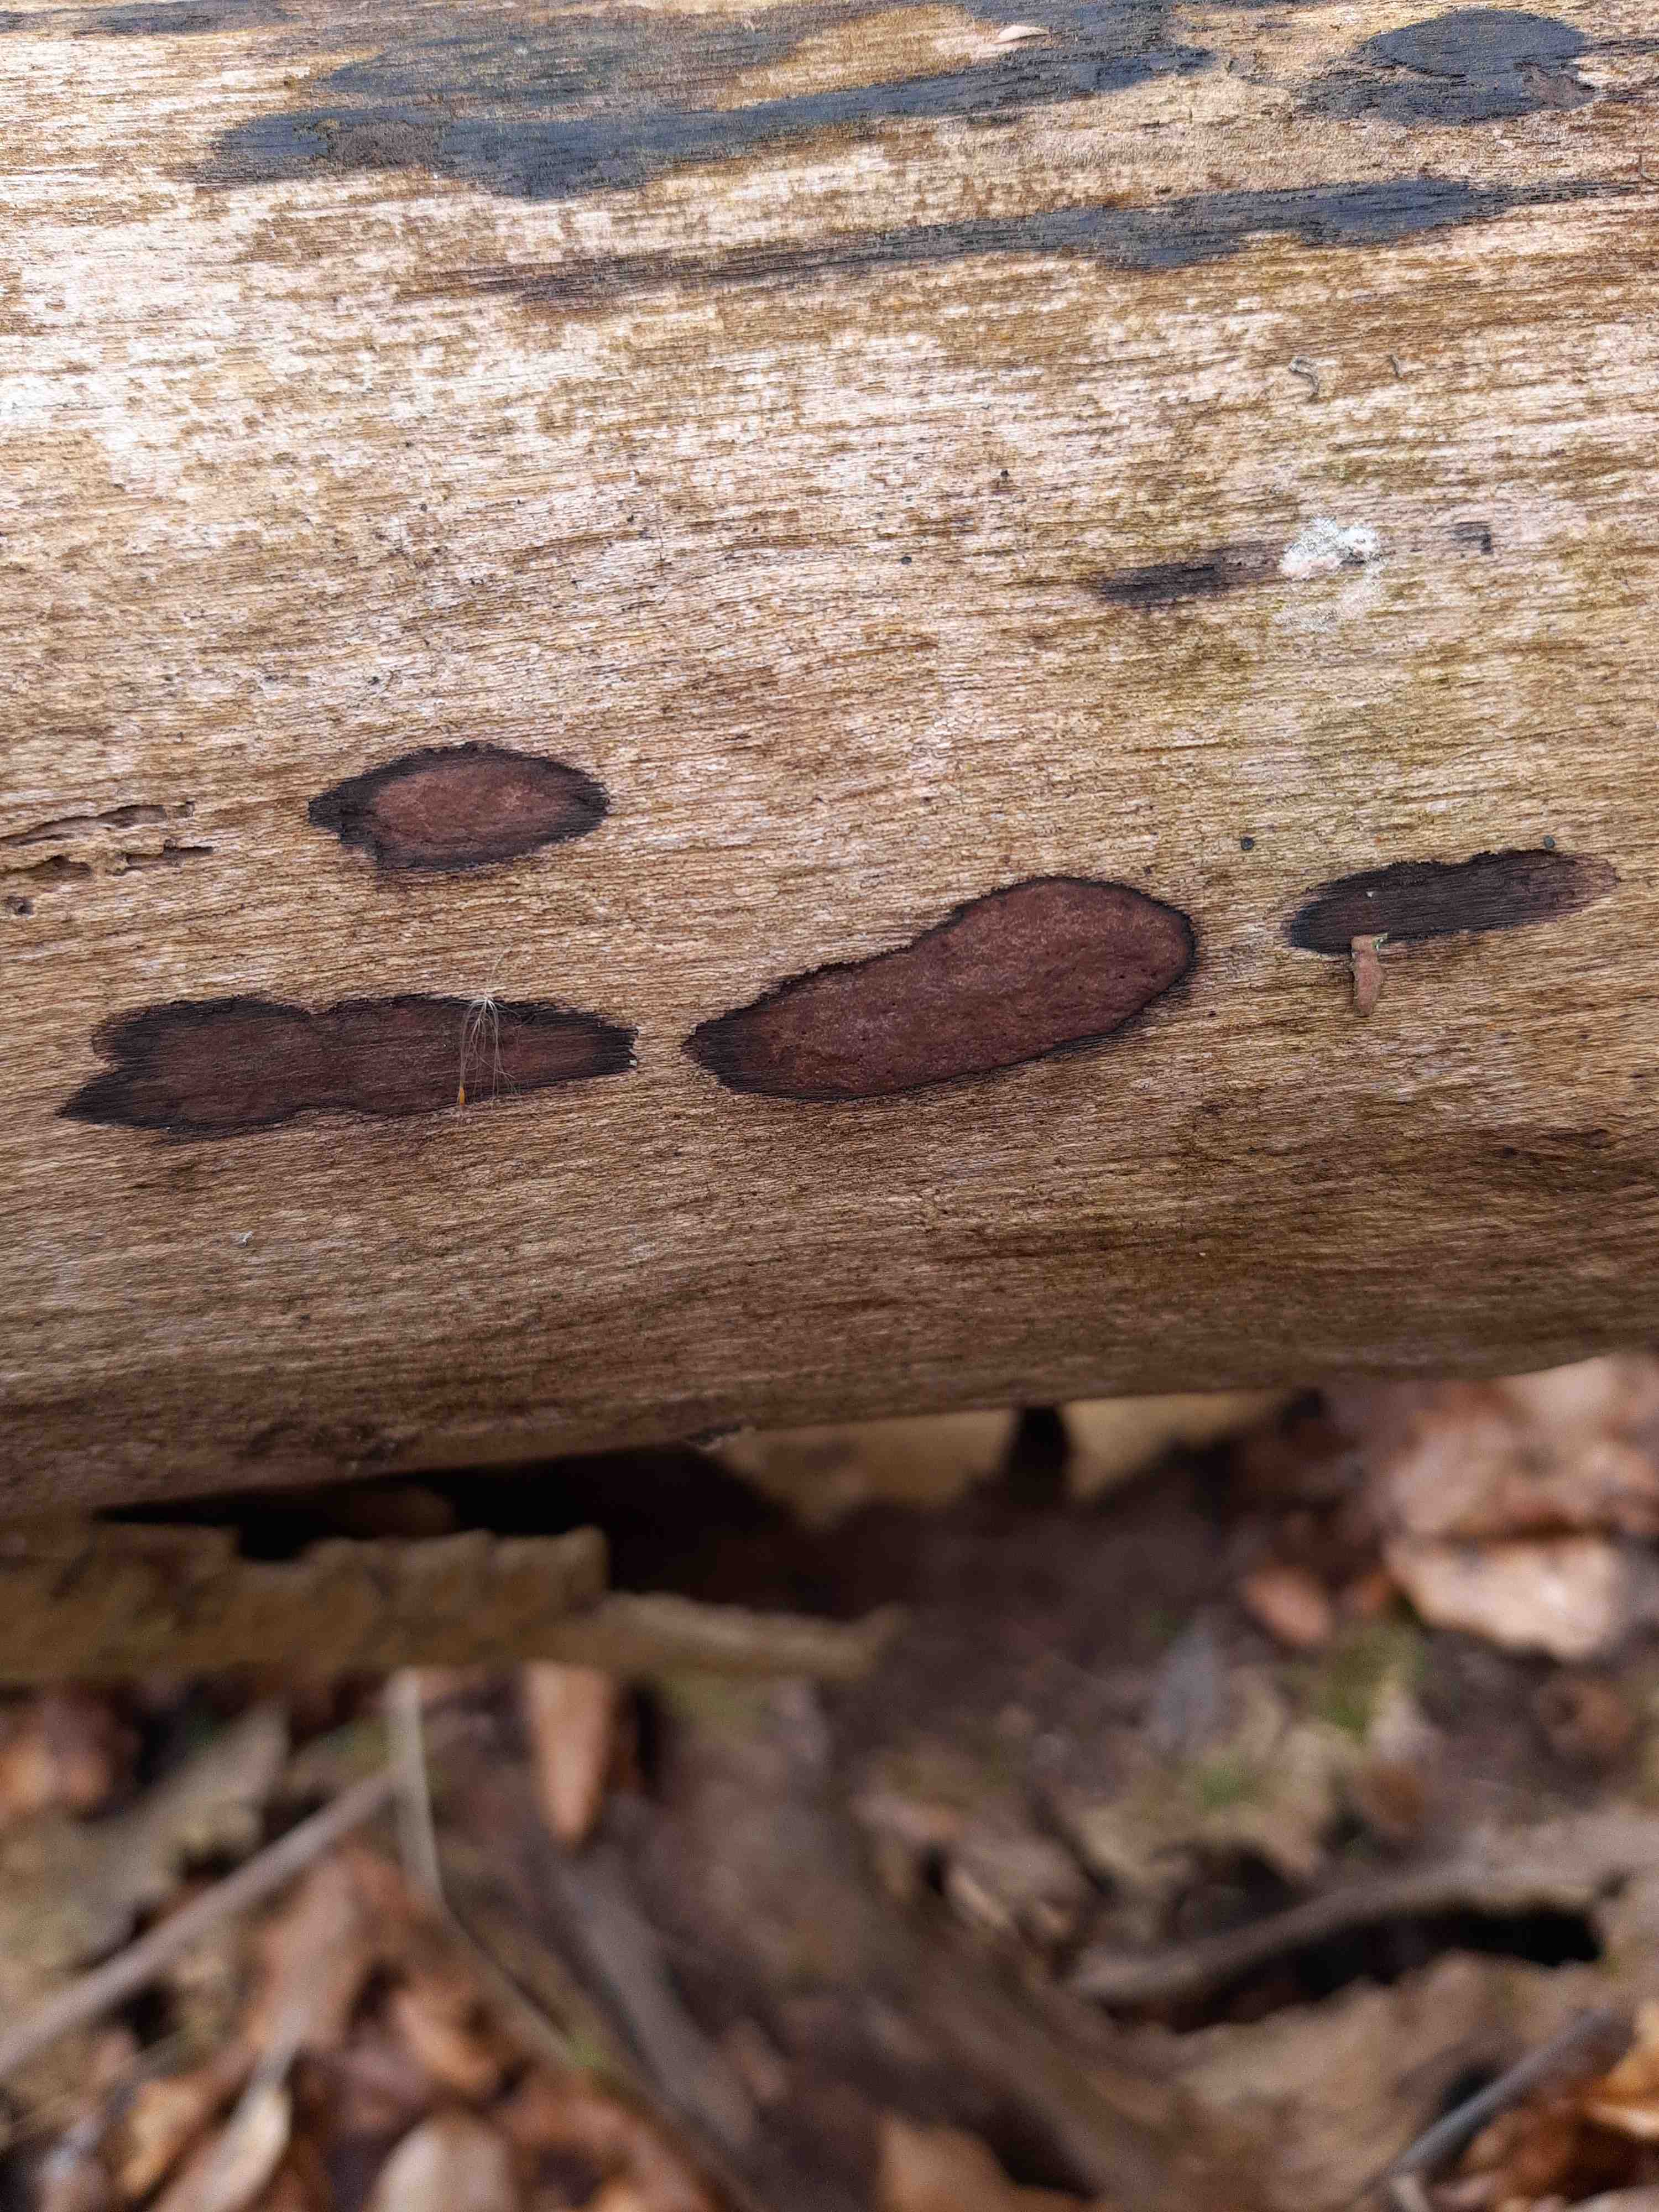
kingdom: Fungi
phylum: Ascomycota
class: Sordariomycetes
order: Xylariales
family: Hypoxylaceae
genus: Hypoxylon
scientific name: Hypoxylon petriniae
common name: nedsænket kulbær
